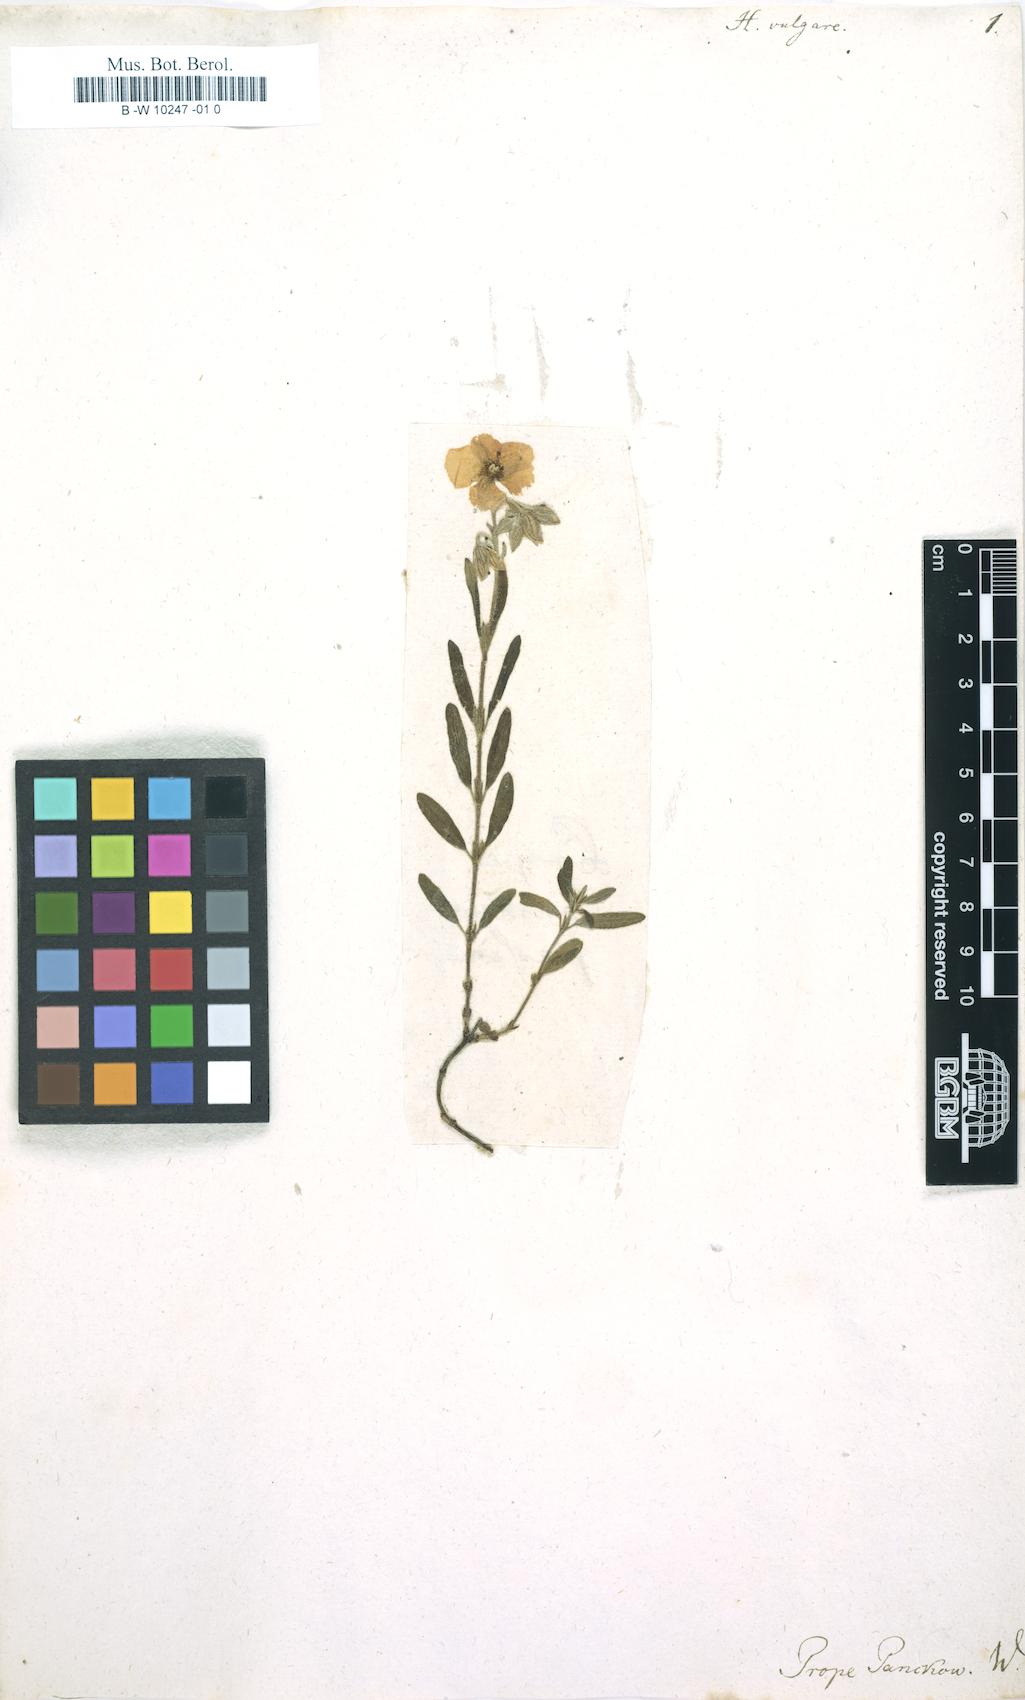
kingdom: Plantae
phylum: Tracheophyta
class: Magnoliopsida
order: Malvales
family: Cistaceae
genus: Helianthemum
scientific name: Helianthemum nummularium
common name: Common rock-rose
